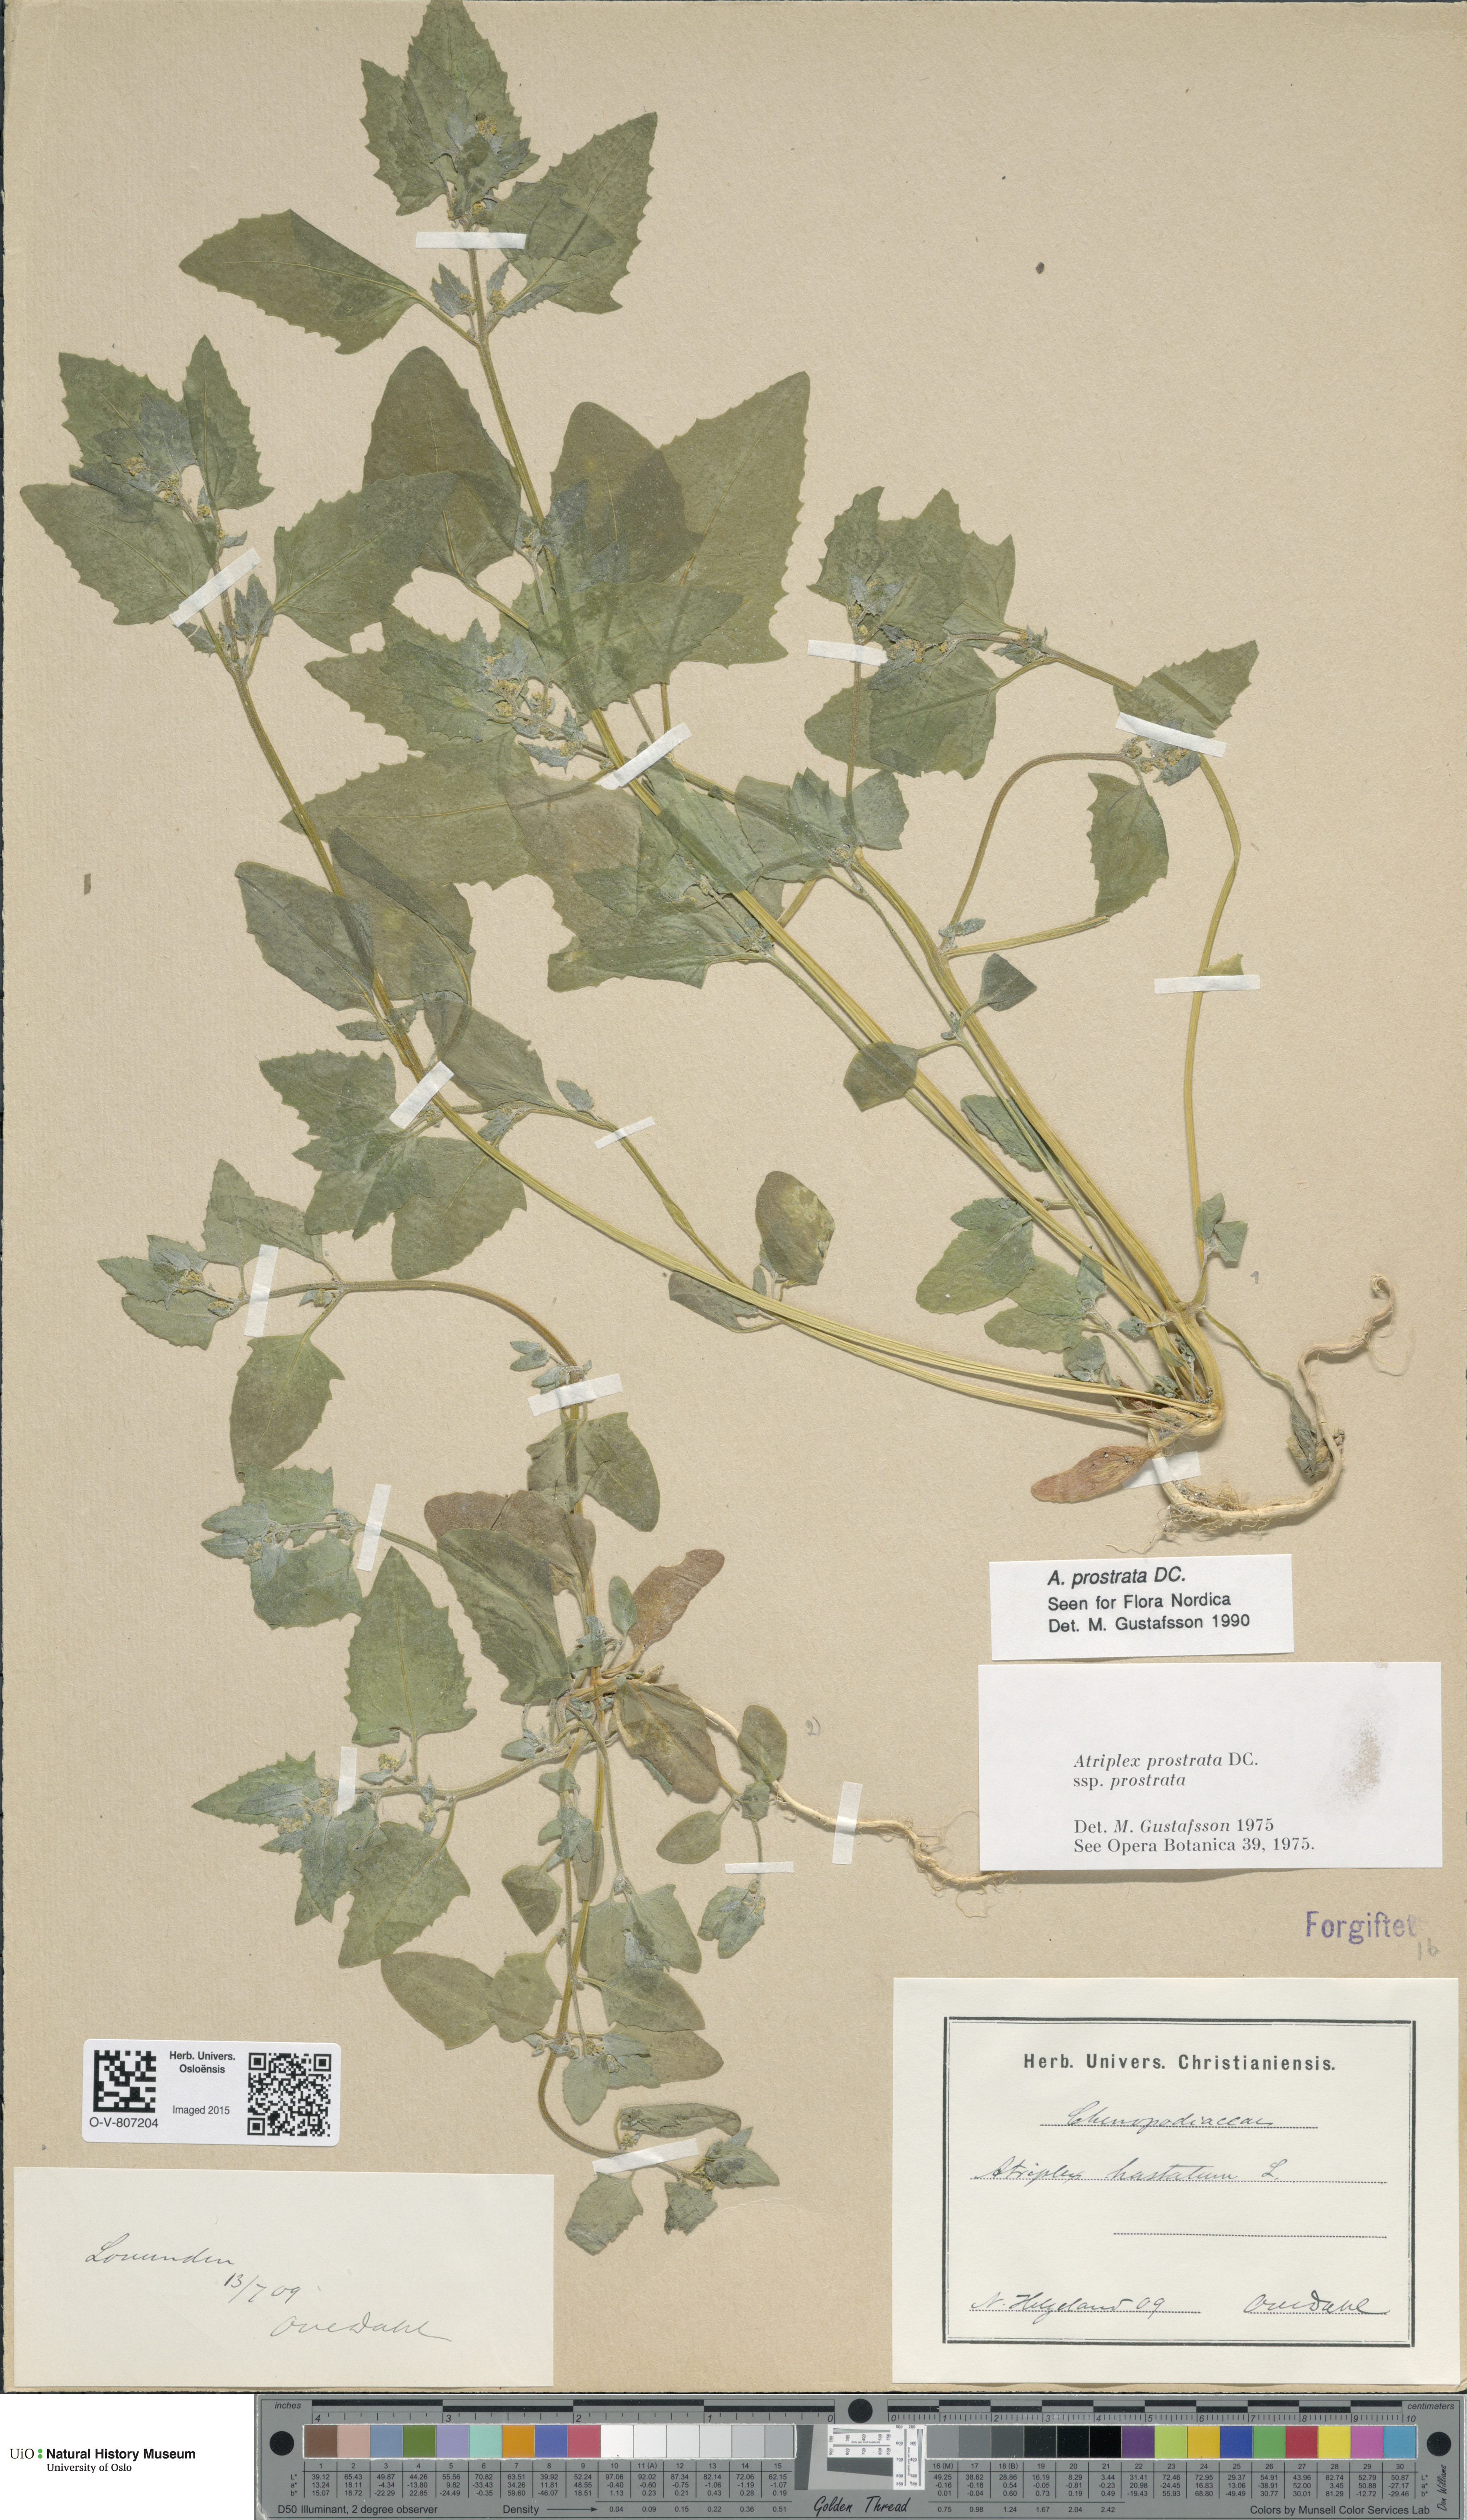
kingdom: Plantae
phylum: Tracheophyta
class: Magnoliopsida
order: Caryophyllales
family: Amaranthaceae
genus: Atriplex
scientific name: Atriplex prostrata
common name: Spear-leaved orache
